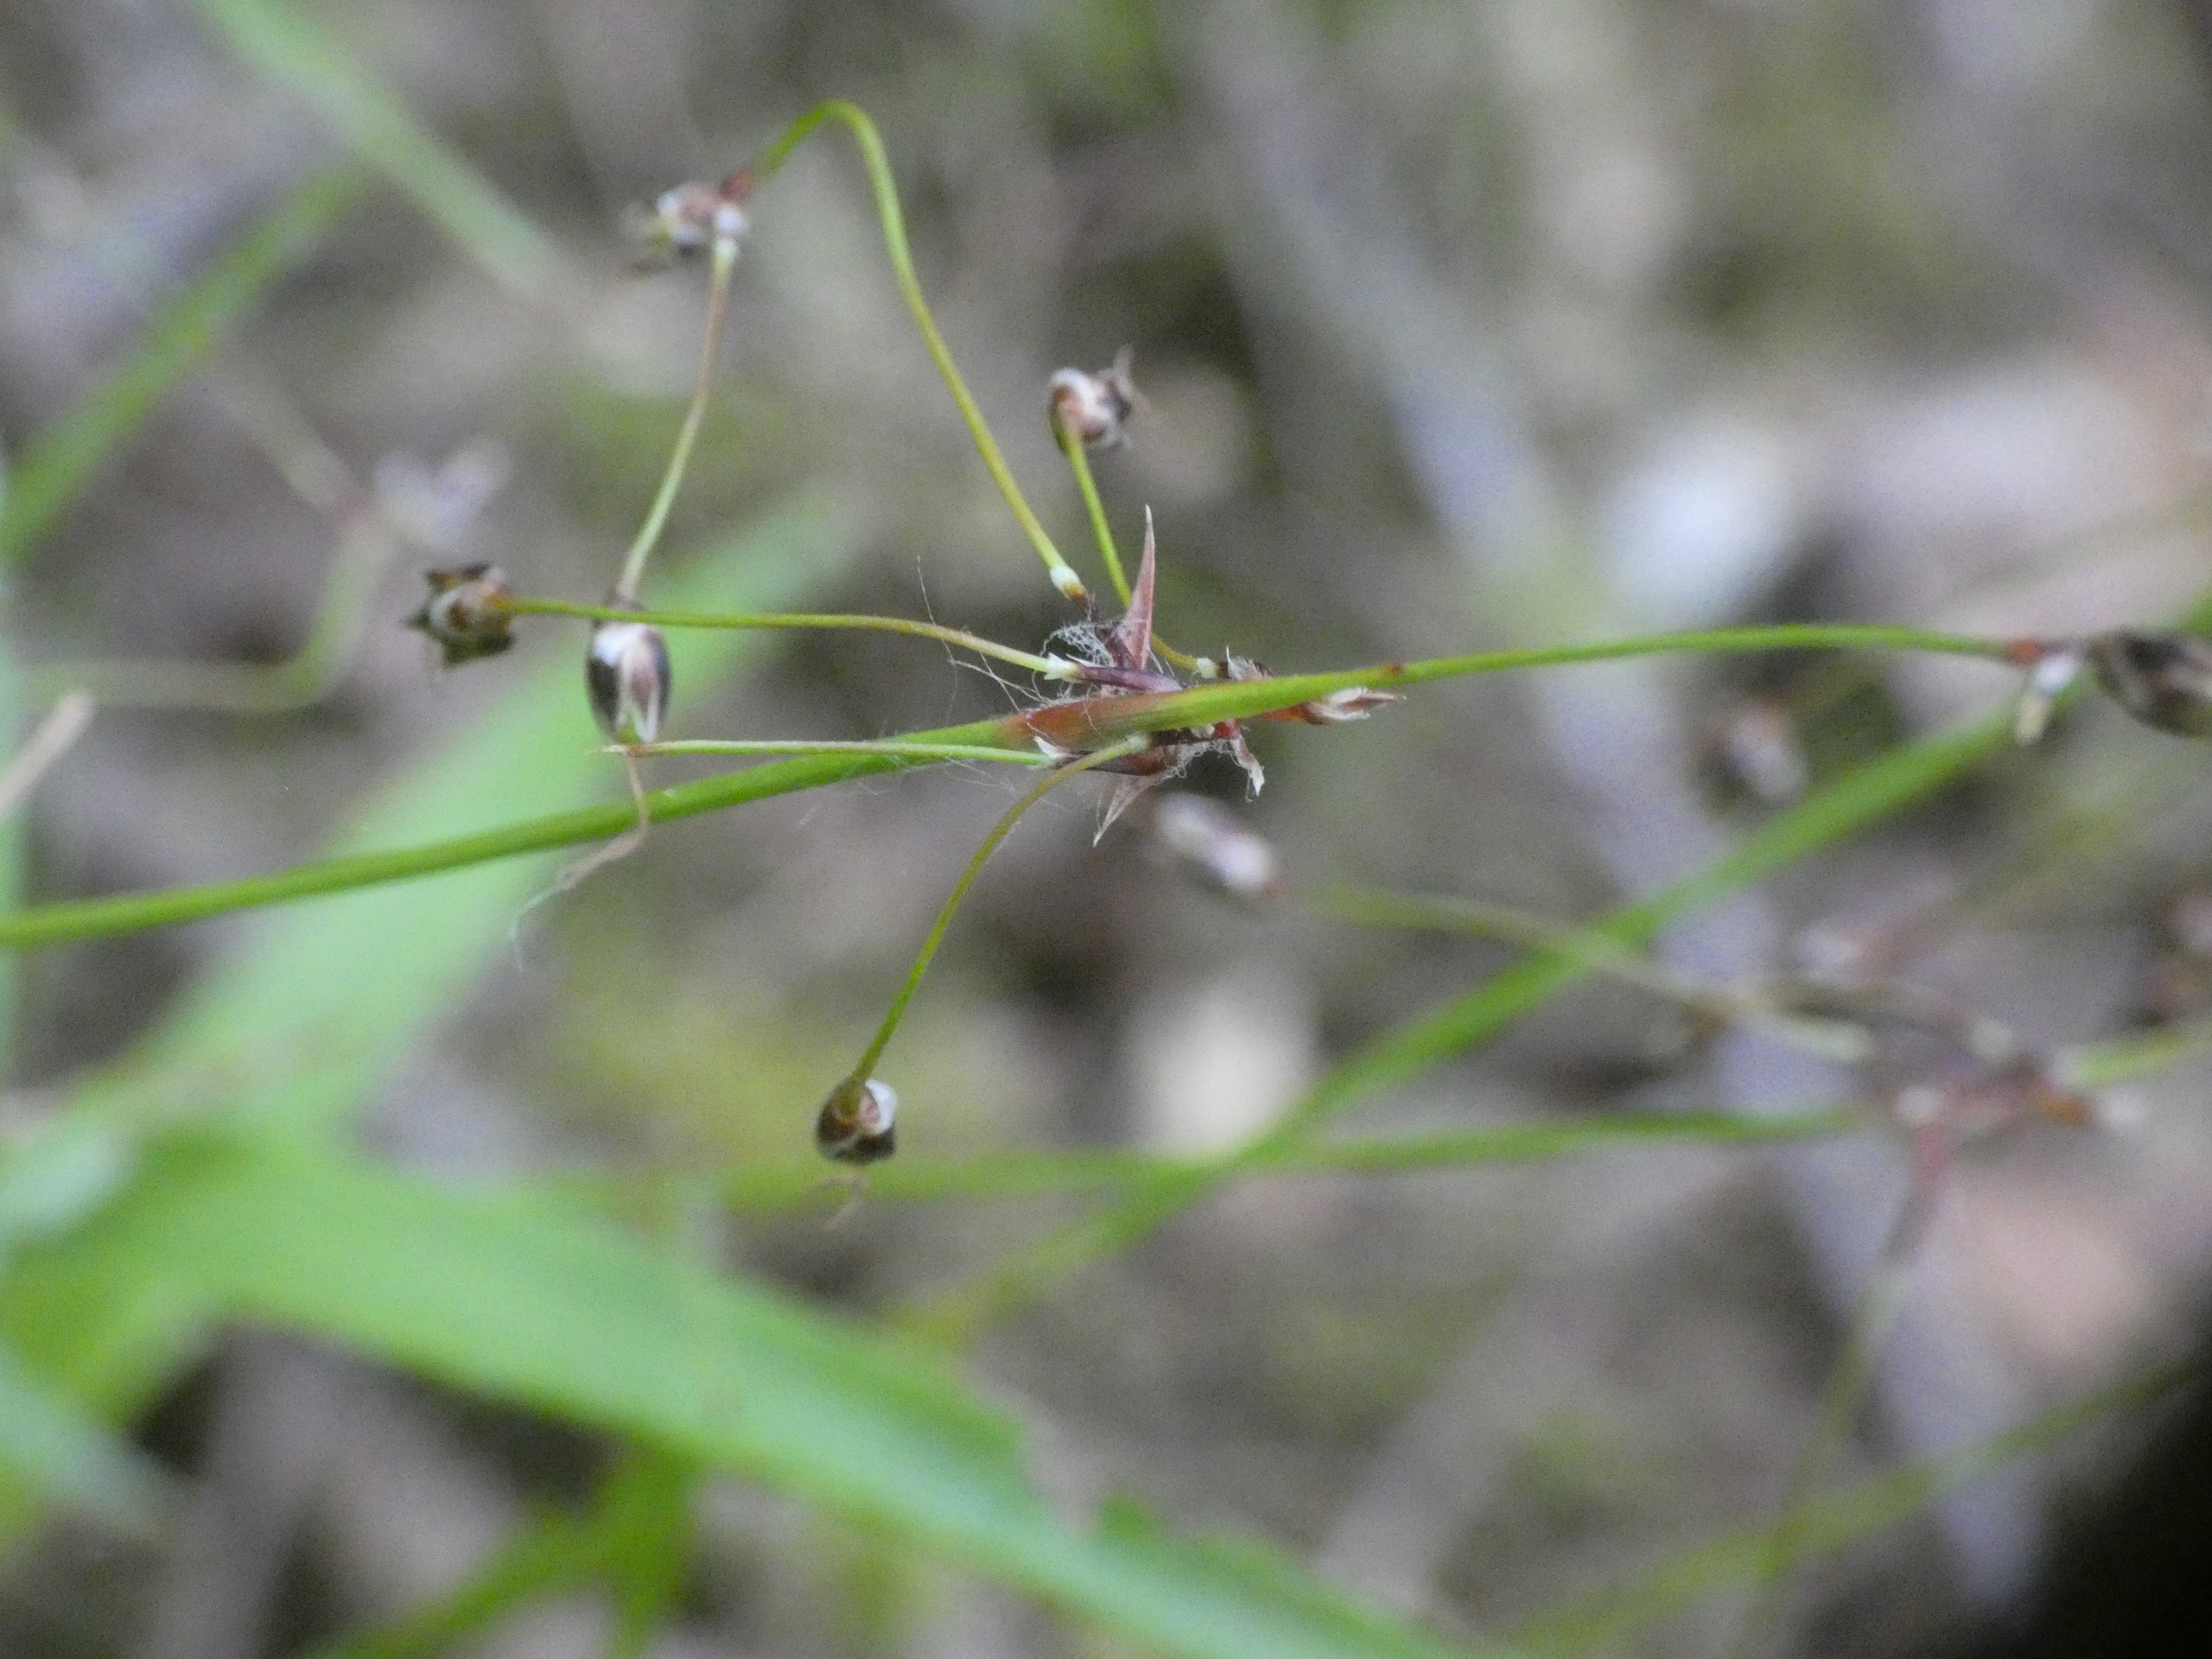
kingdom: Plantae
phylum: Tracheophyta
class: Liliopsida
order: Poales
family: Juncaceae
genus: Luzula
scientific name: Luzula pilosa
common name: Håret frytle
